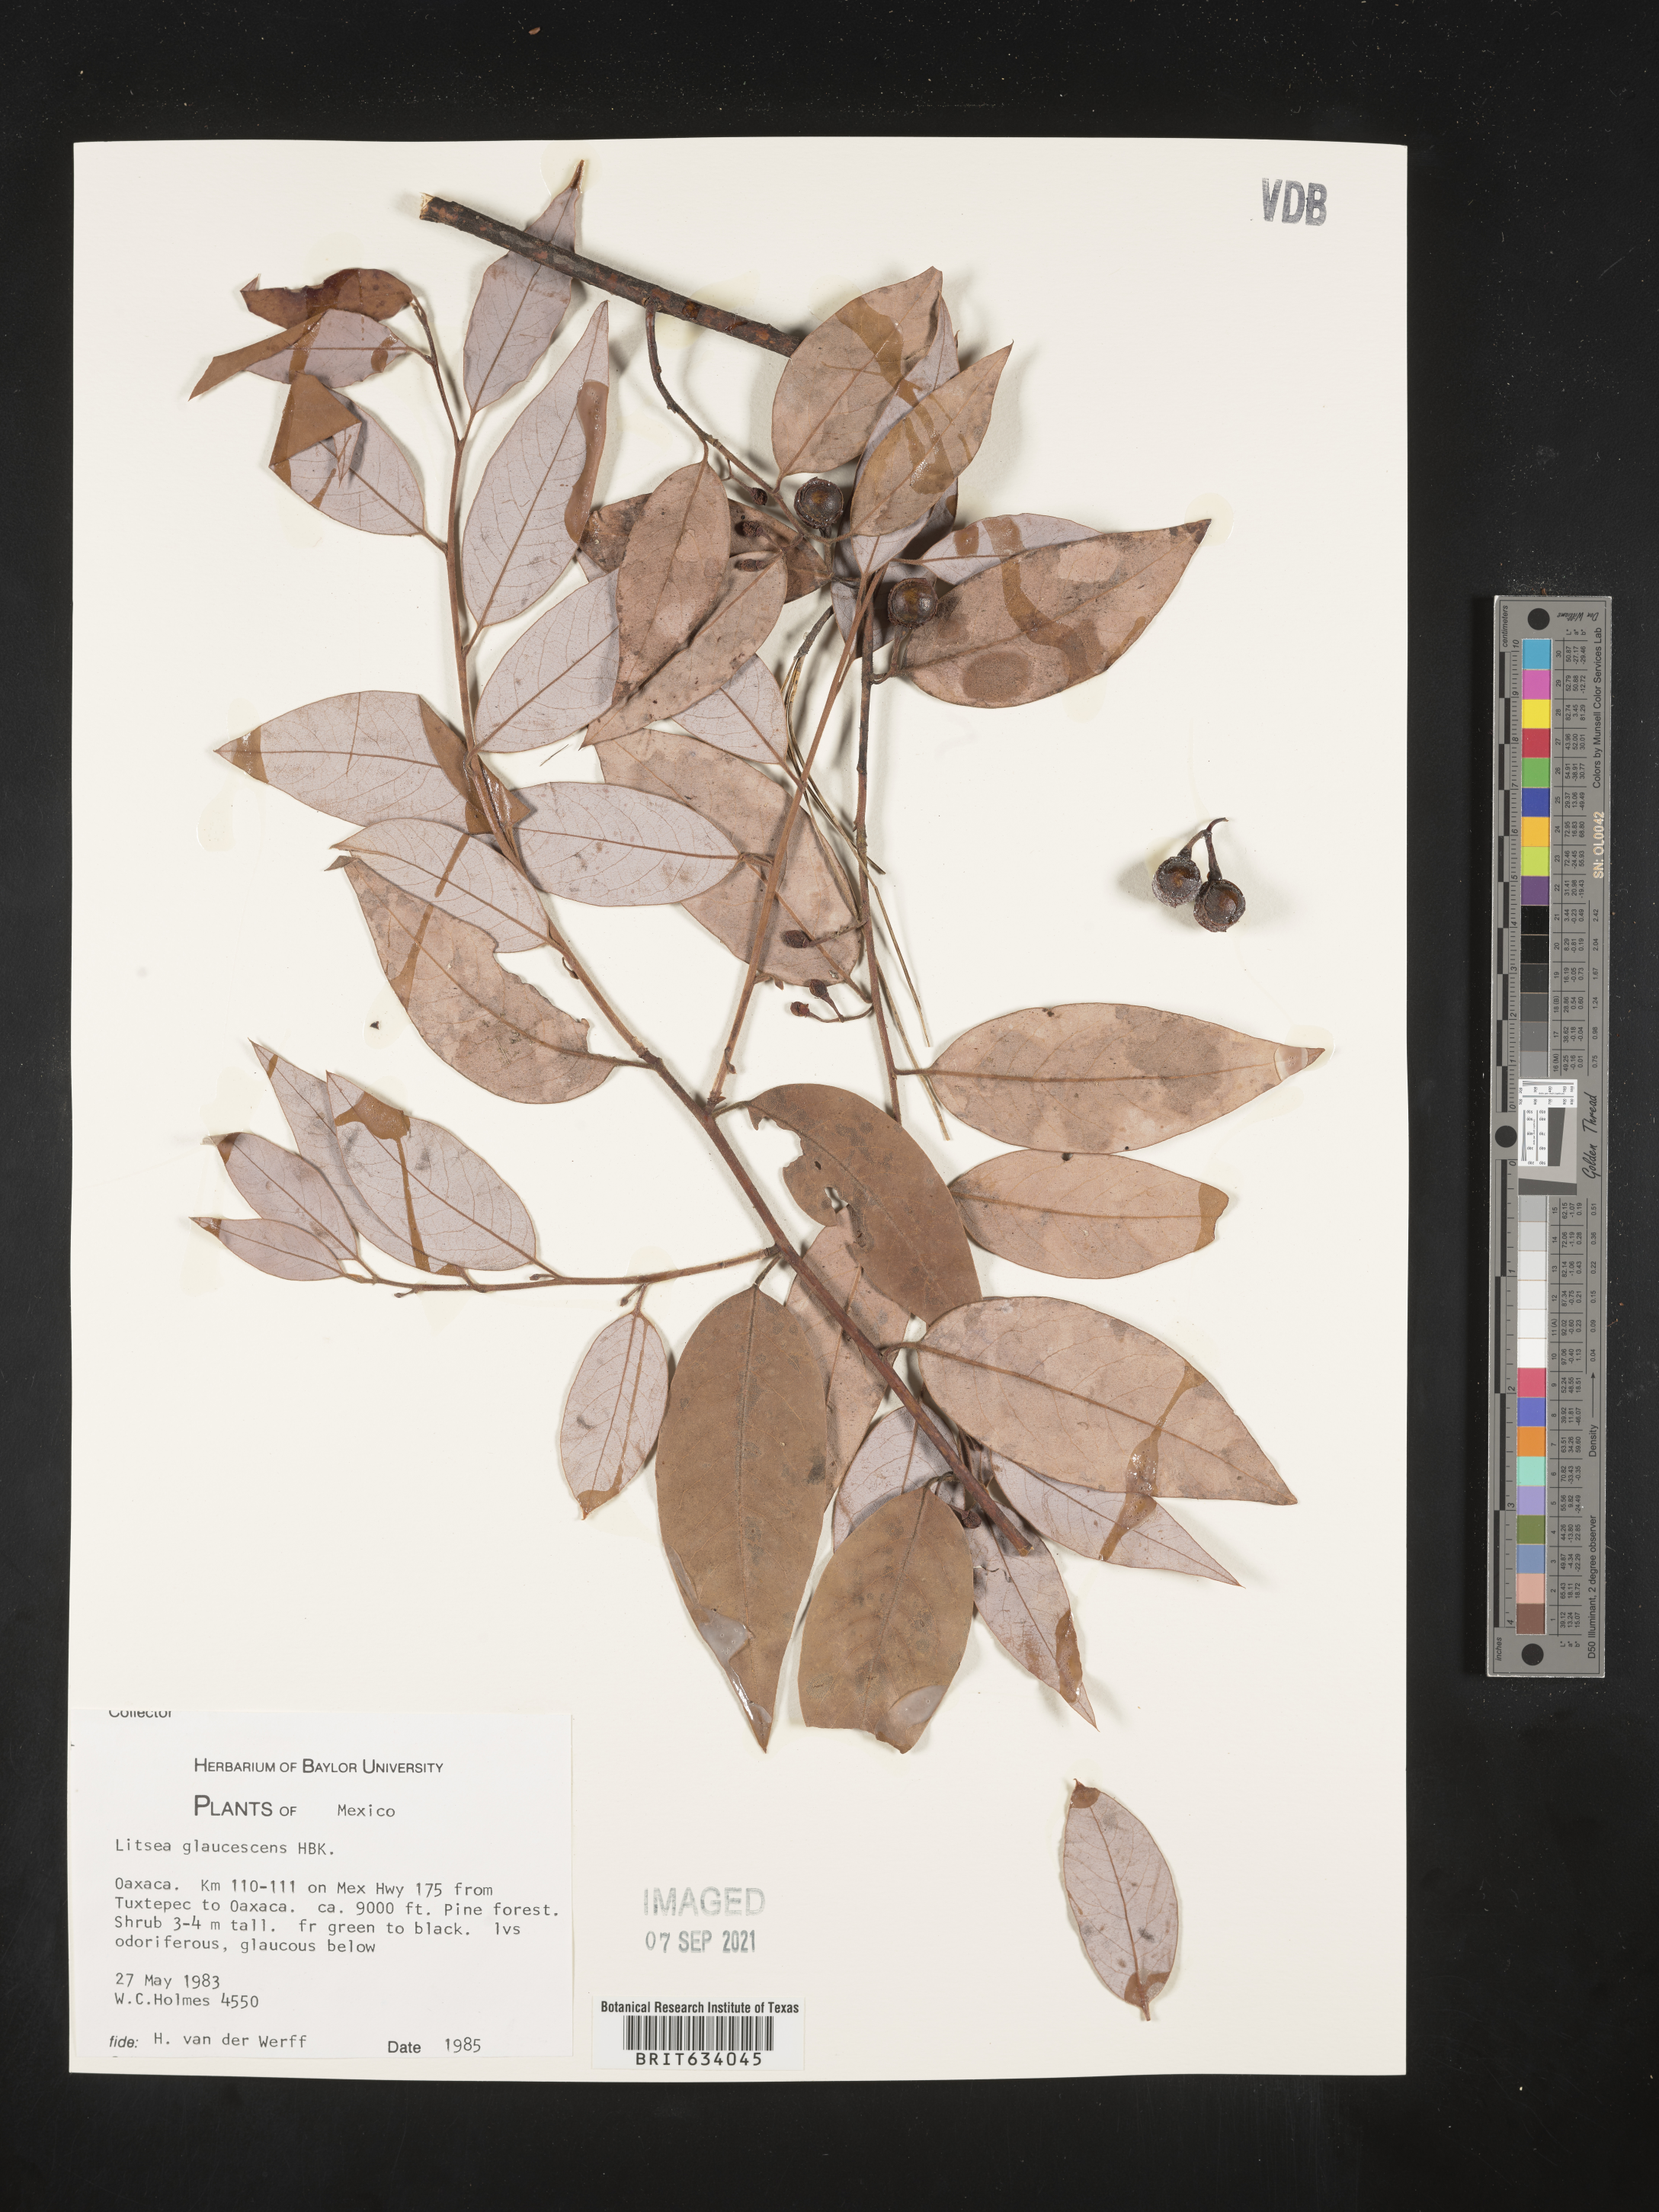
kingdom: Plantae
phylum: Tracheophyta
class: Magnoliopsida
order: Laurales
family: Lauraceae
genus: Litsea
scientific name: Litsea
